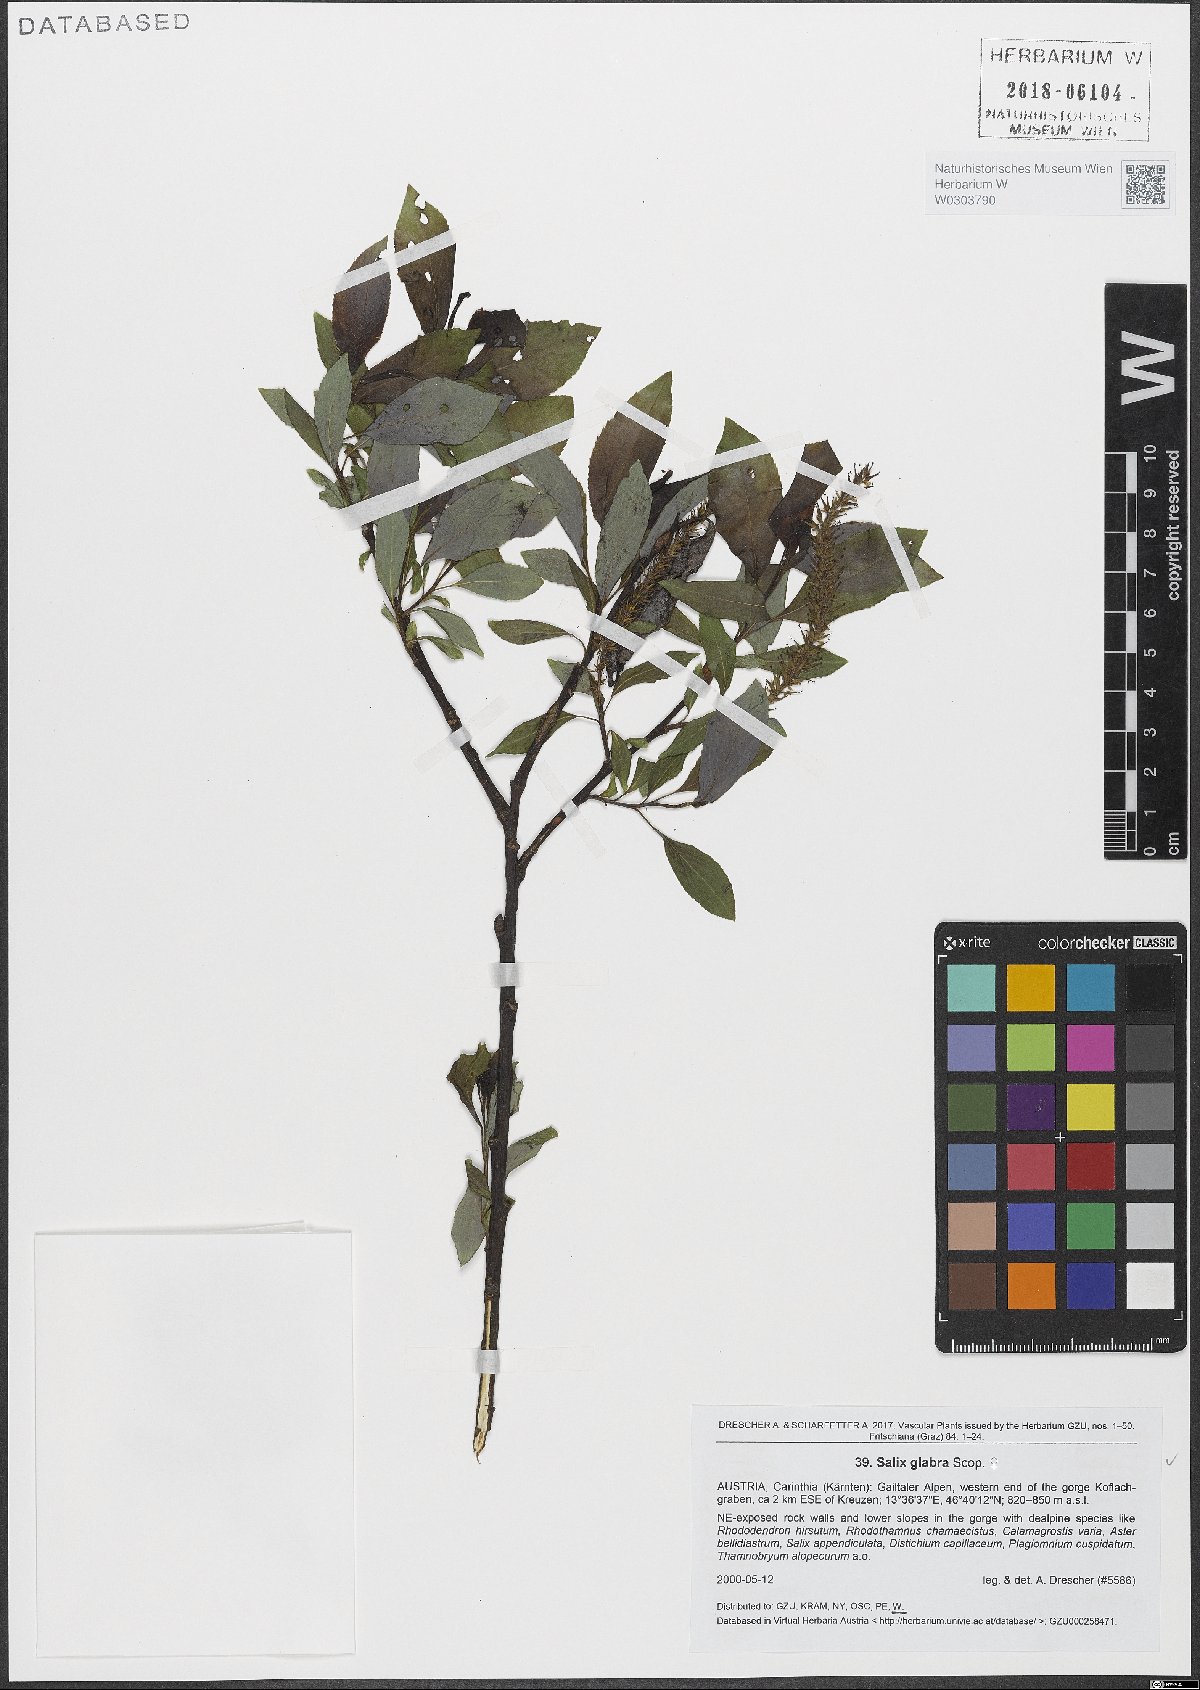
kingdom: Plantae
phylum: Tracheophyta
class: Magnoliopsida
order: Malpighiales
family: Salicaceae
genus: Salix
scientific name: Salix glabra
